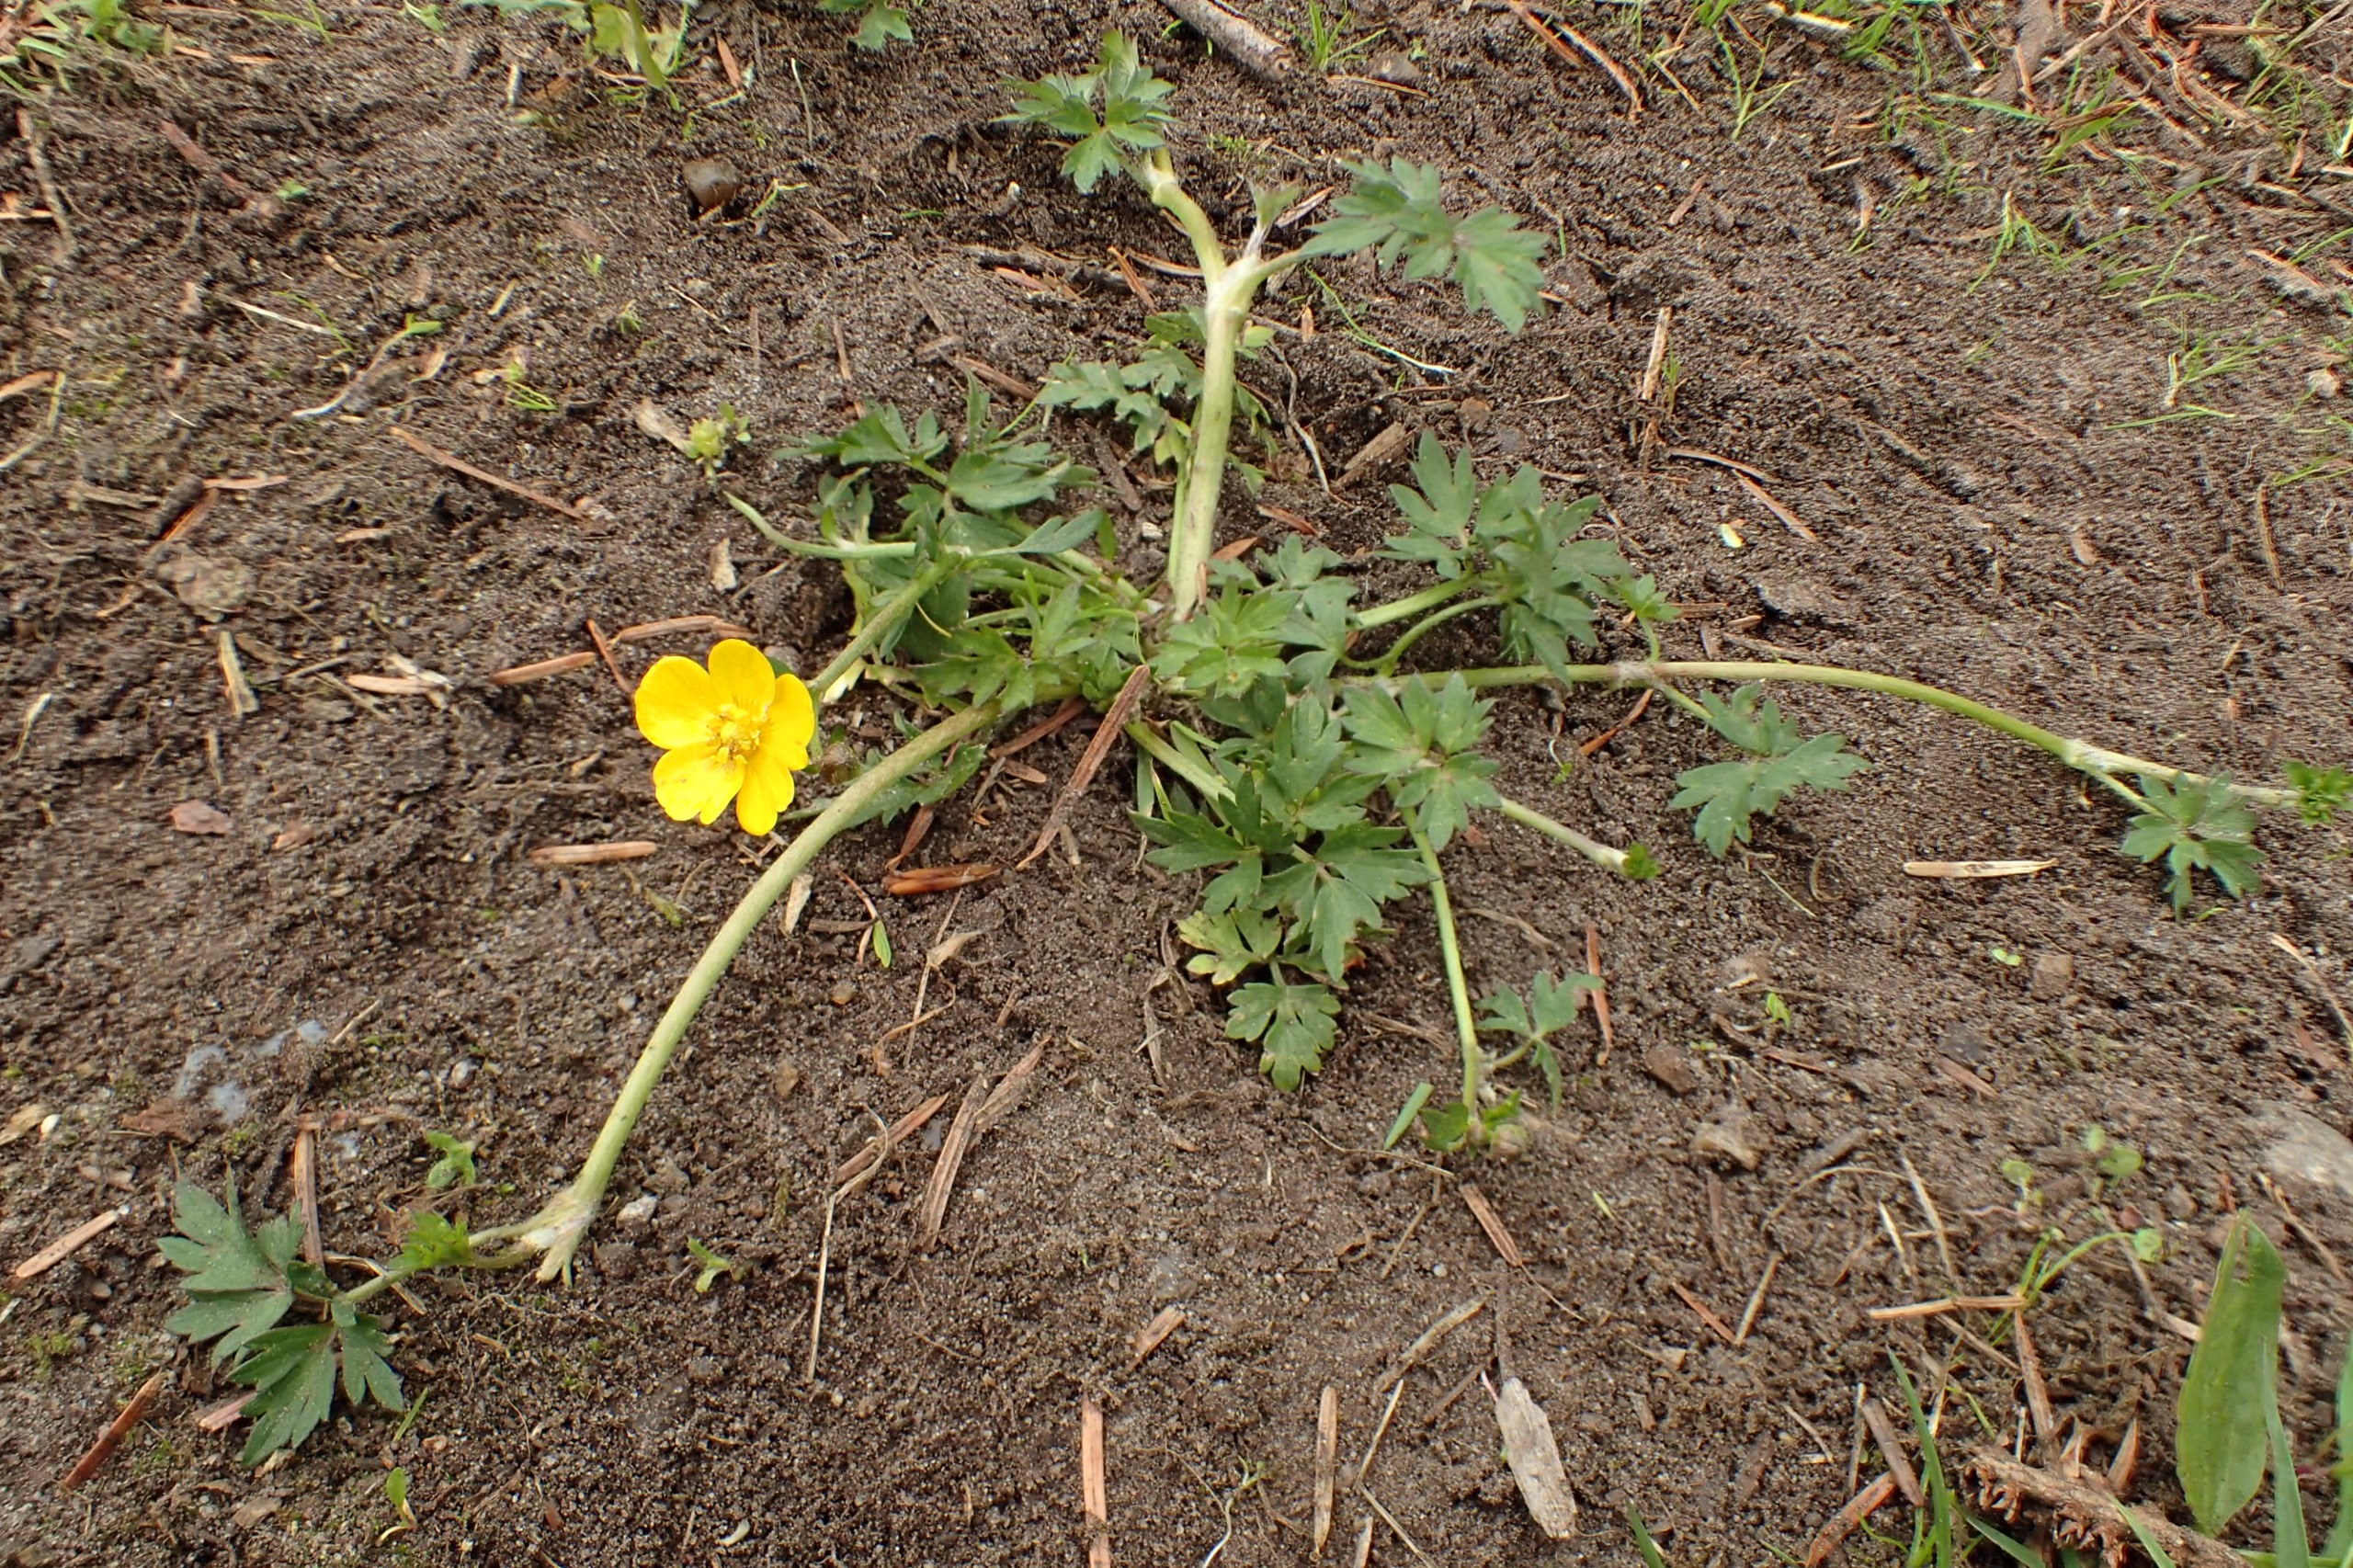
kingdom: Plantae
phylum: Tracheophyta
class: Magnoliopsida
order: Ranunculales
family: Ranunculaceae
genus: Ranunculus
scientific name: Ranunculus repens
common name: Lav ranunkel
